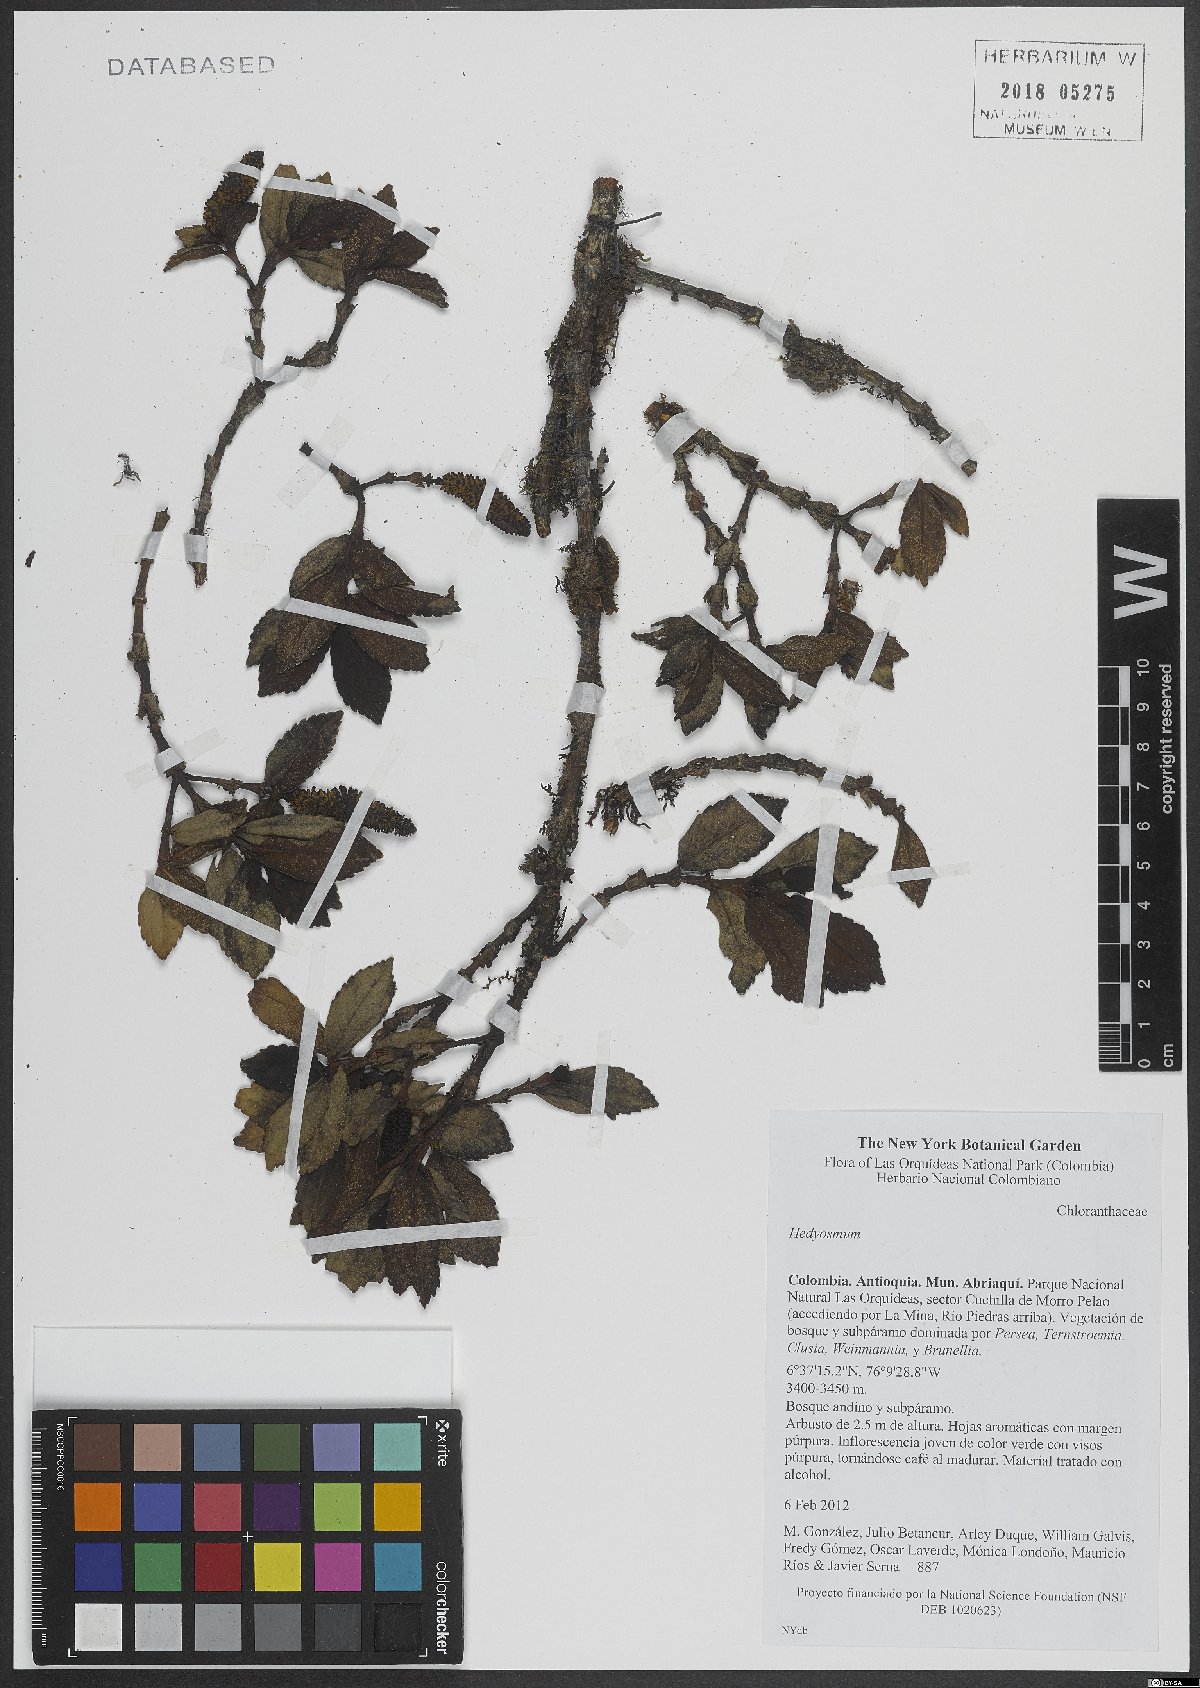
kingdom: Plantae
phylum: Tracheophyta
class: Magnoliopsida
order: Chloranthales
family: Chloranthaceae
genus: Hedyosmum
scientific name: Hedyosmum
